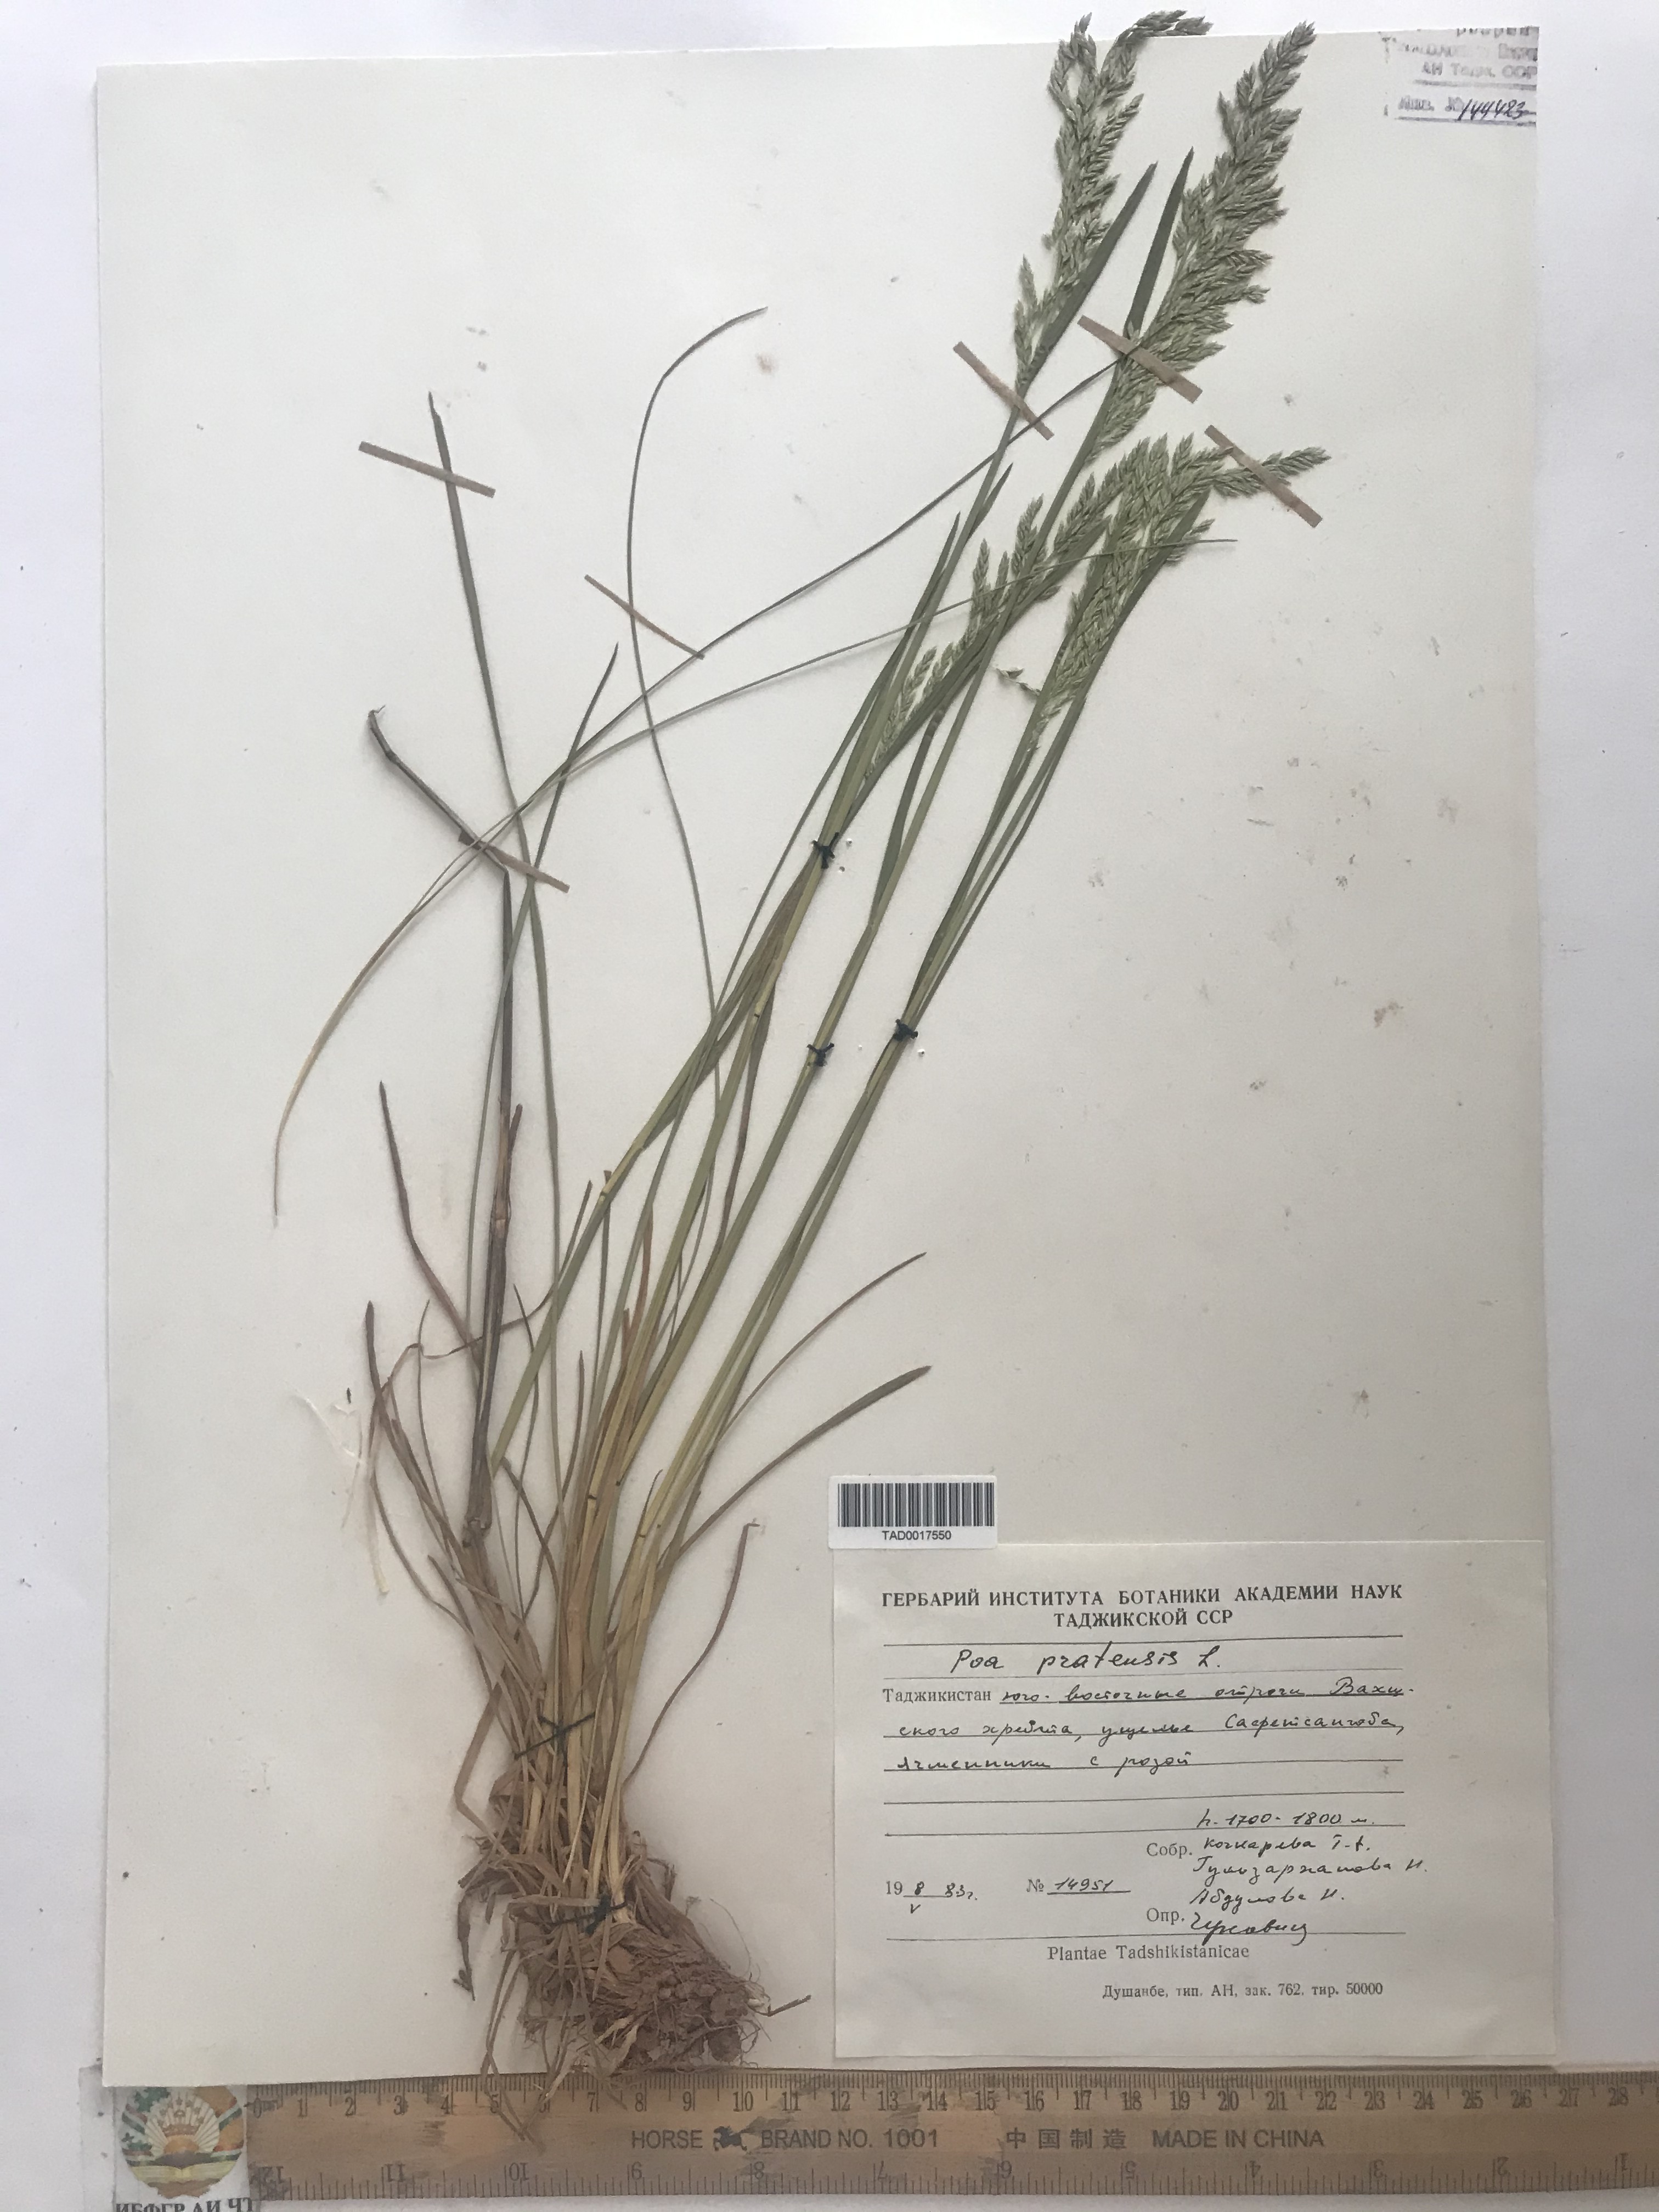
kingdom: Plantae
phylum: Tracheophyta
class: Liliopsida
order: Poales
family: Poaceae
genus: Poa
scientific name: Poa pratensis
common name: Kentucky bluegrass
